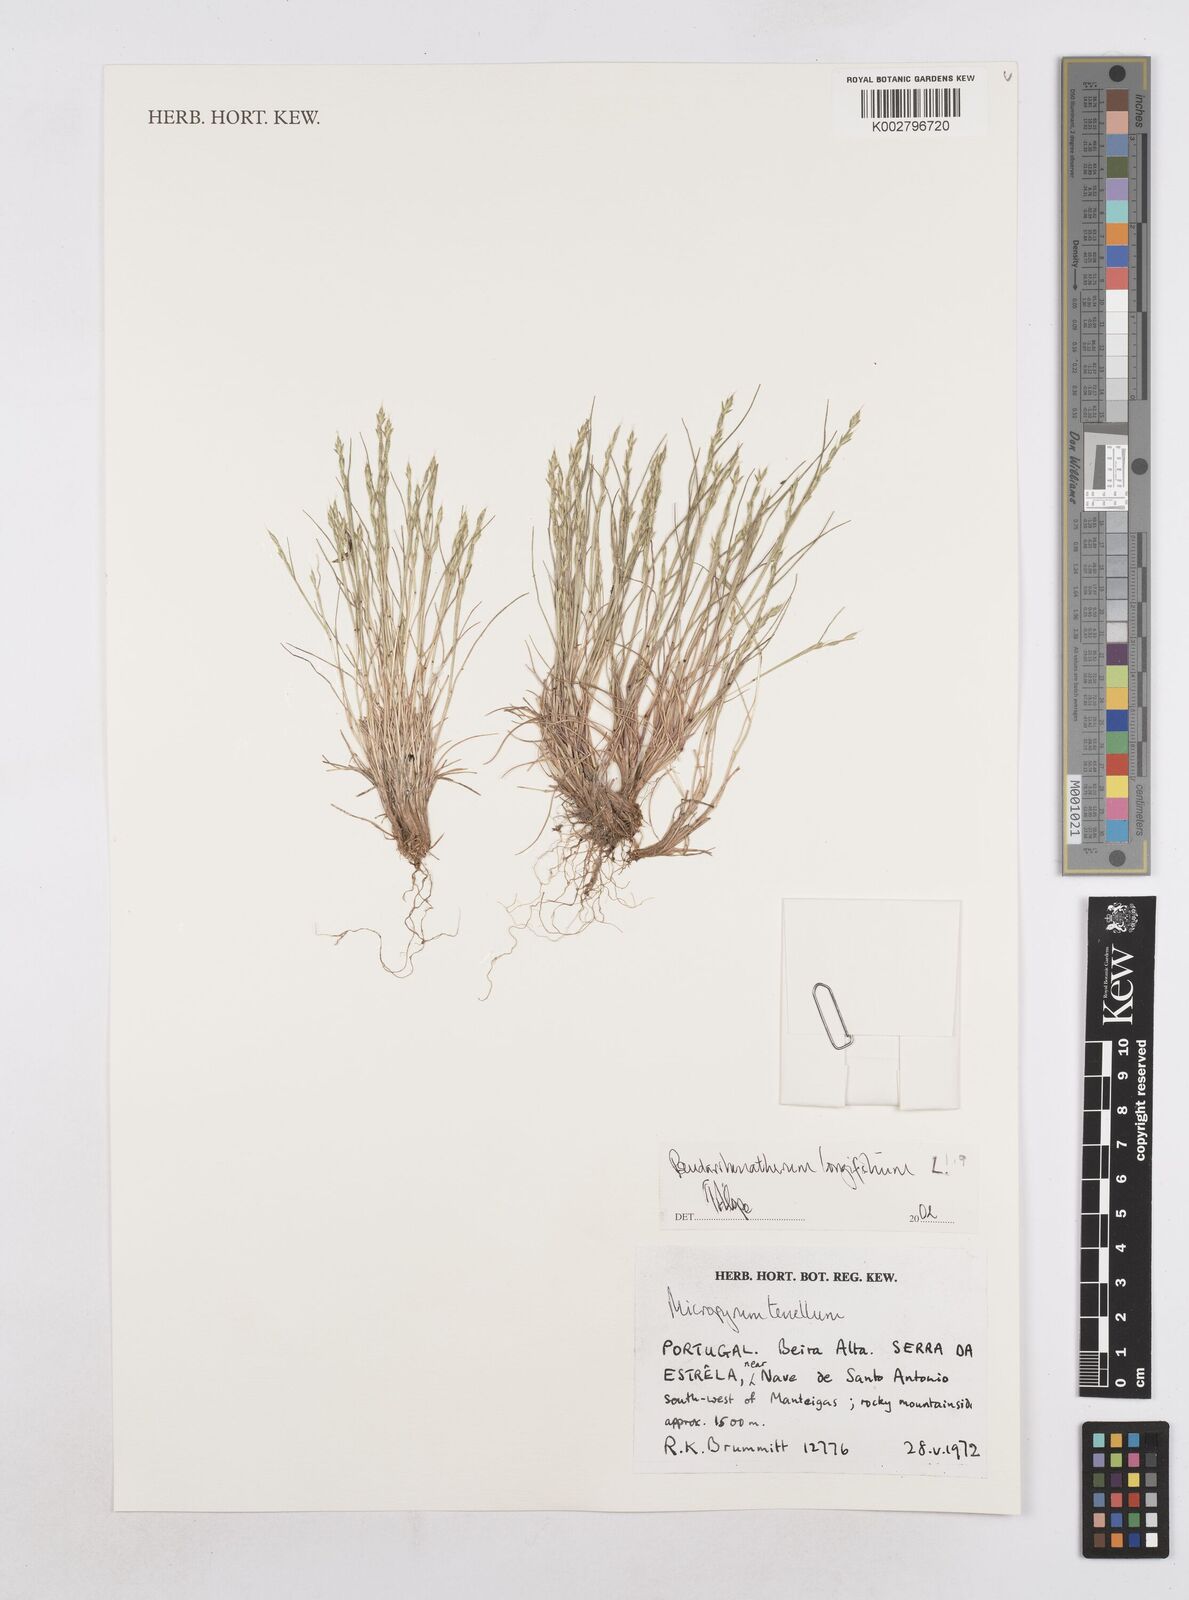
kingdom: Plantae
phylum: Tracheophyta
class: Liliopsida
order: Poales
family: Poaceae
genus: Arrhenatherum
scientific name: Arrhenatherum longifolium
